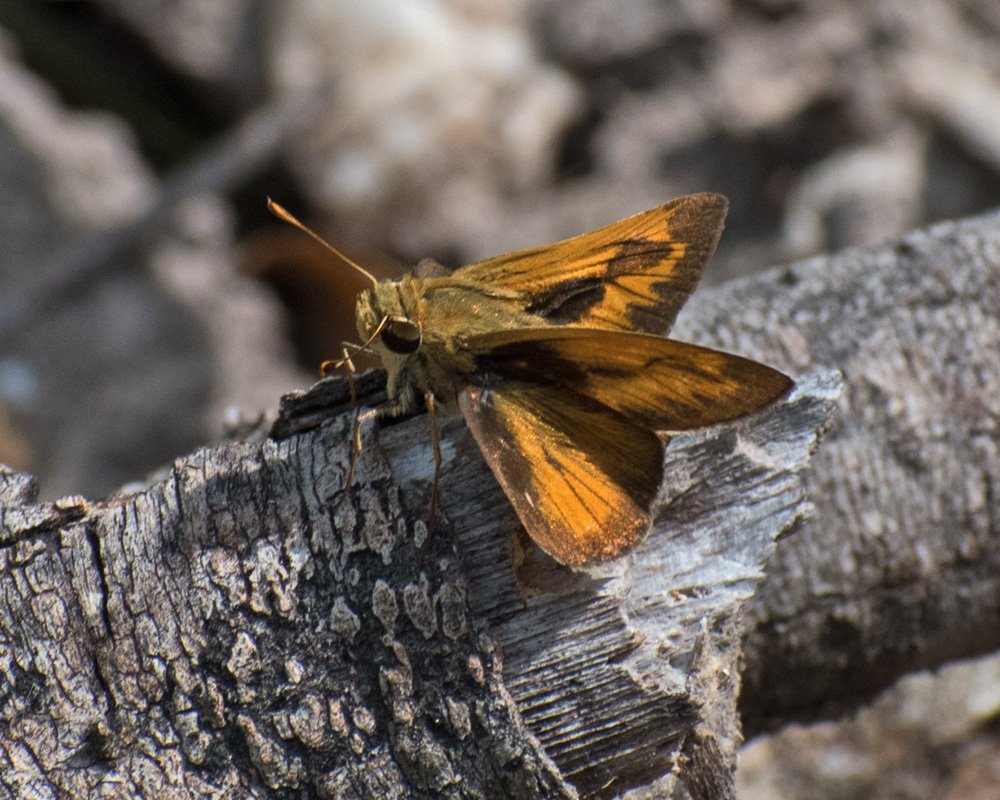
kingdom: Animalia
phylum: Arthropoda
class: Insecta
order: Lepidoptera
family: Hesperiidae
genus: Polites
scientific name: Polites vibex
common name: Whirlabout
